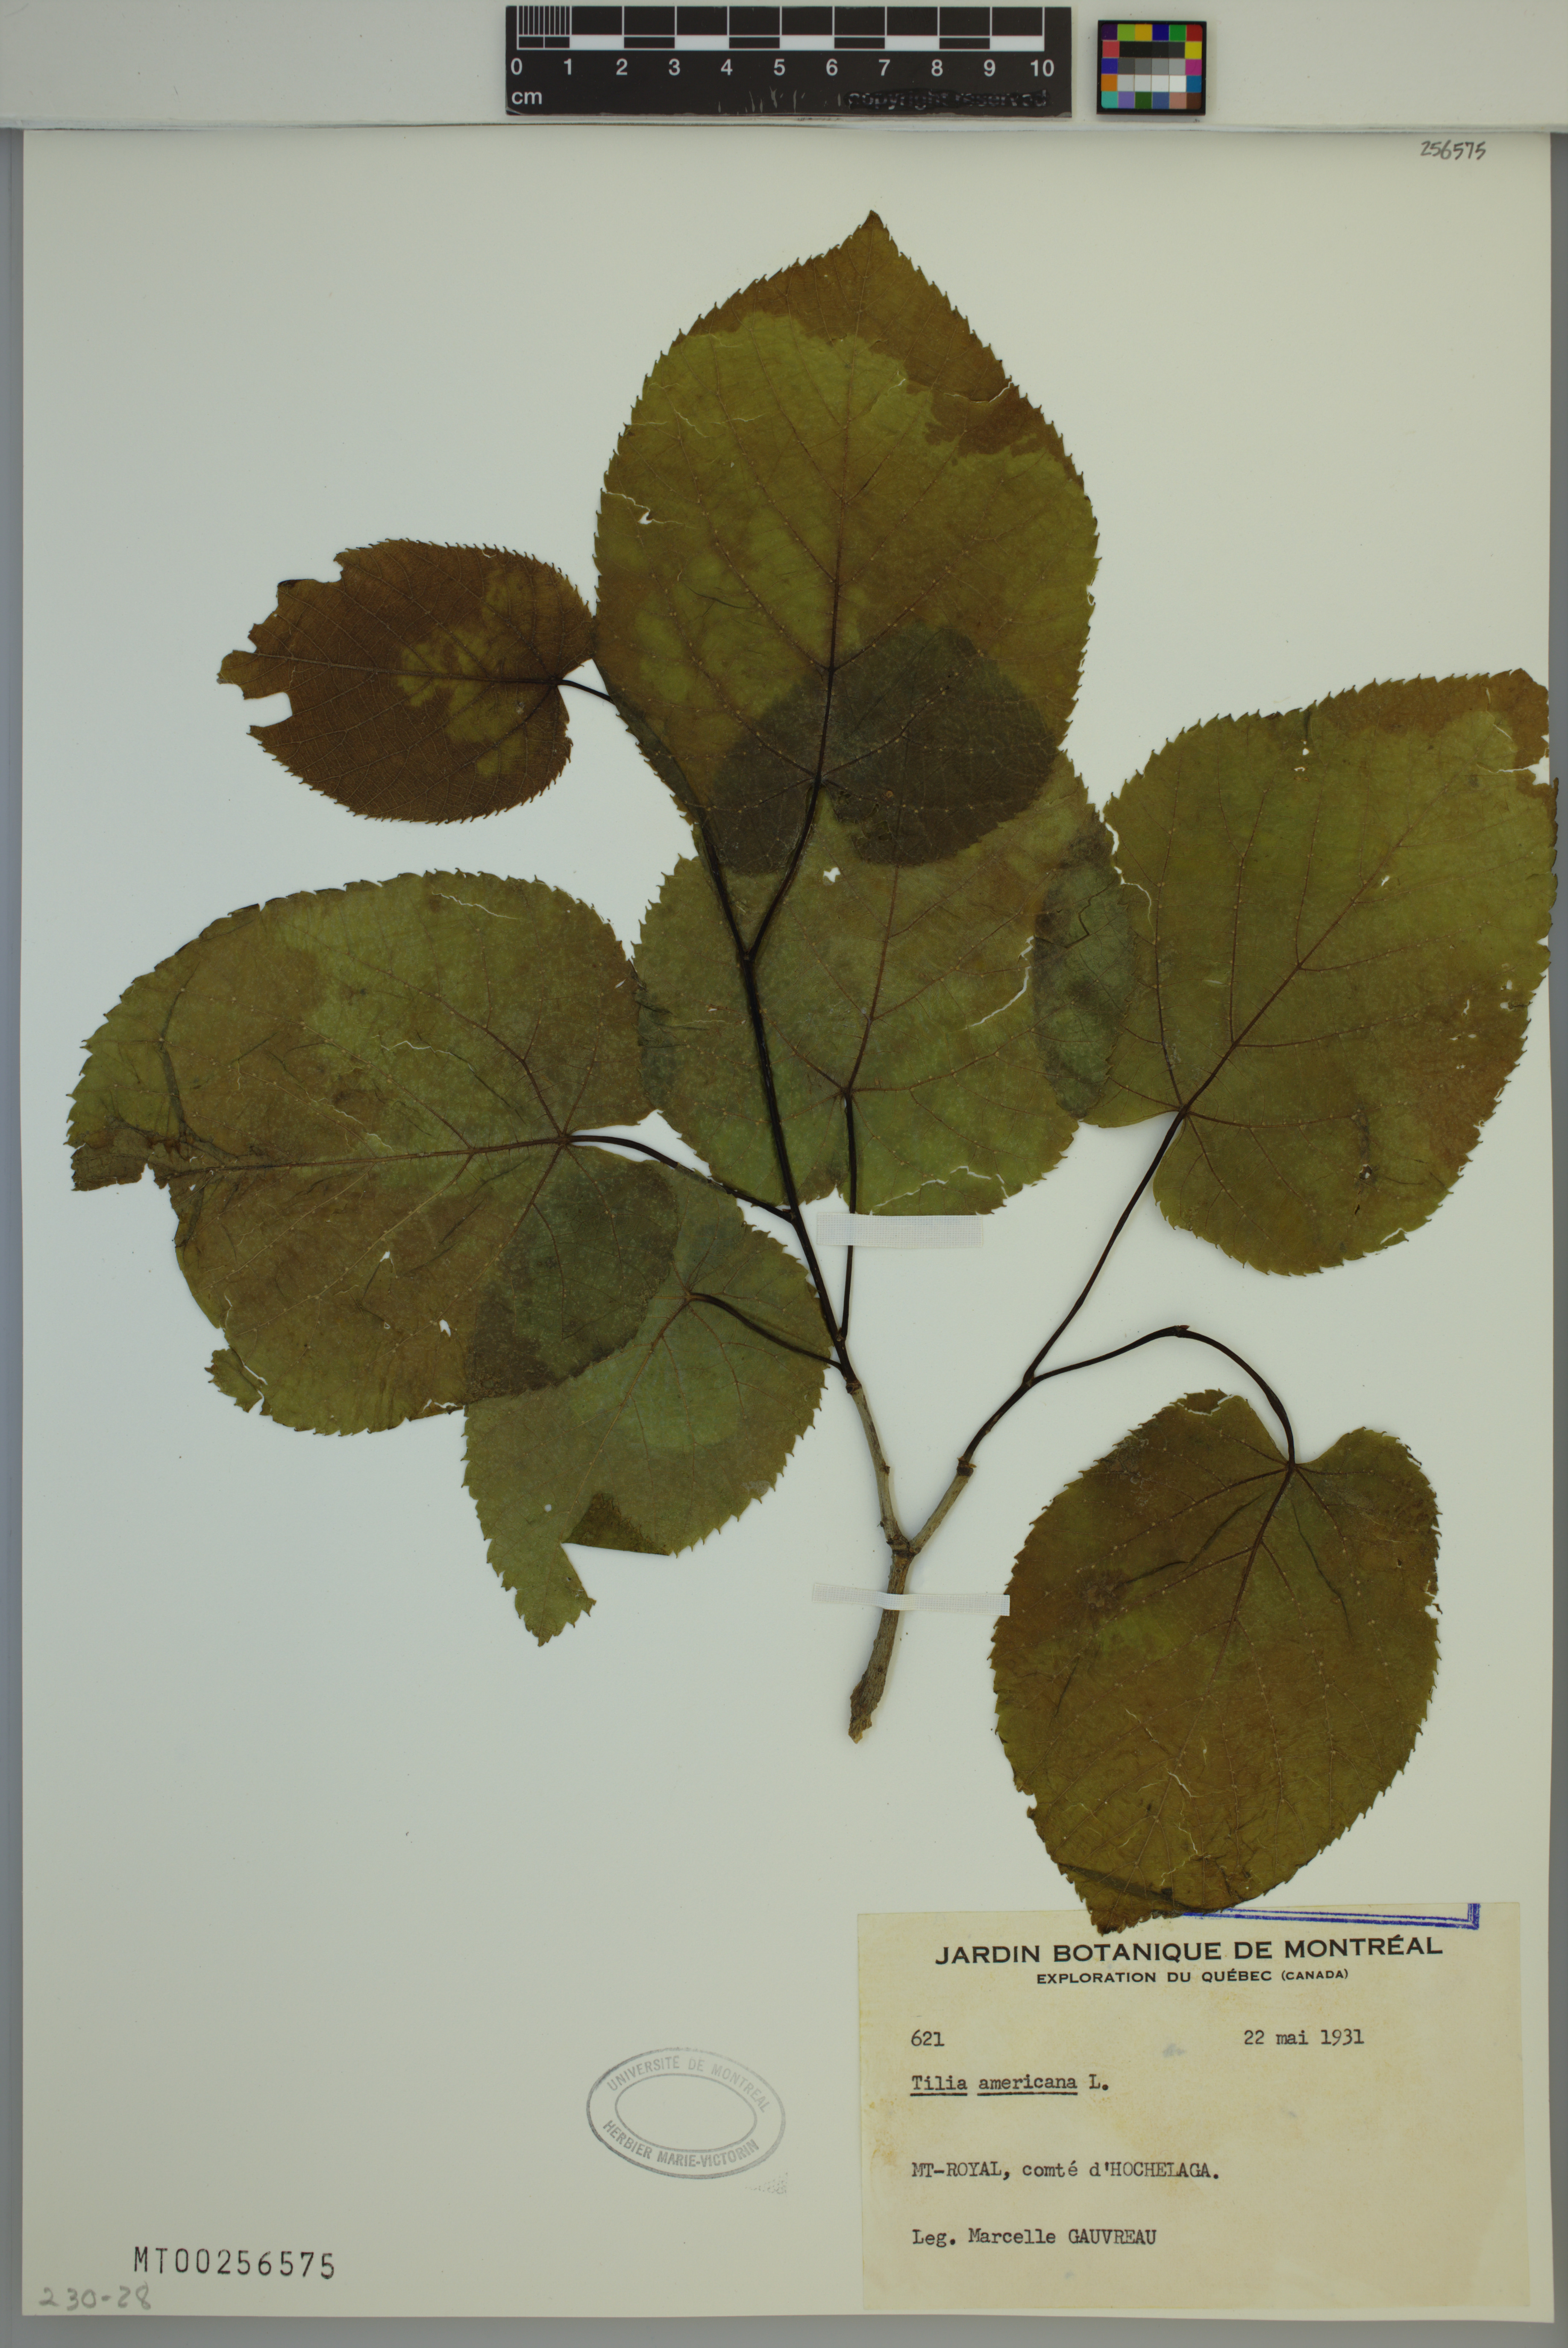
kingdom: Plantae
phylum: Tracheophyta
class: Magnoliopsida
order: Malvales
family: Malvaceae
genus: Tilia
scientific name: Tilia americana
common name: Basswood
